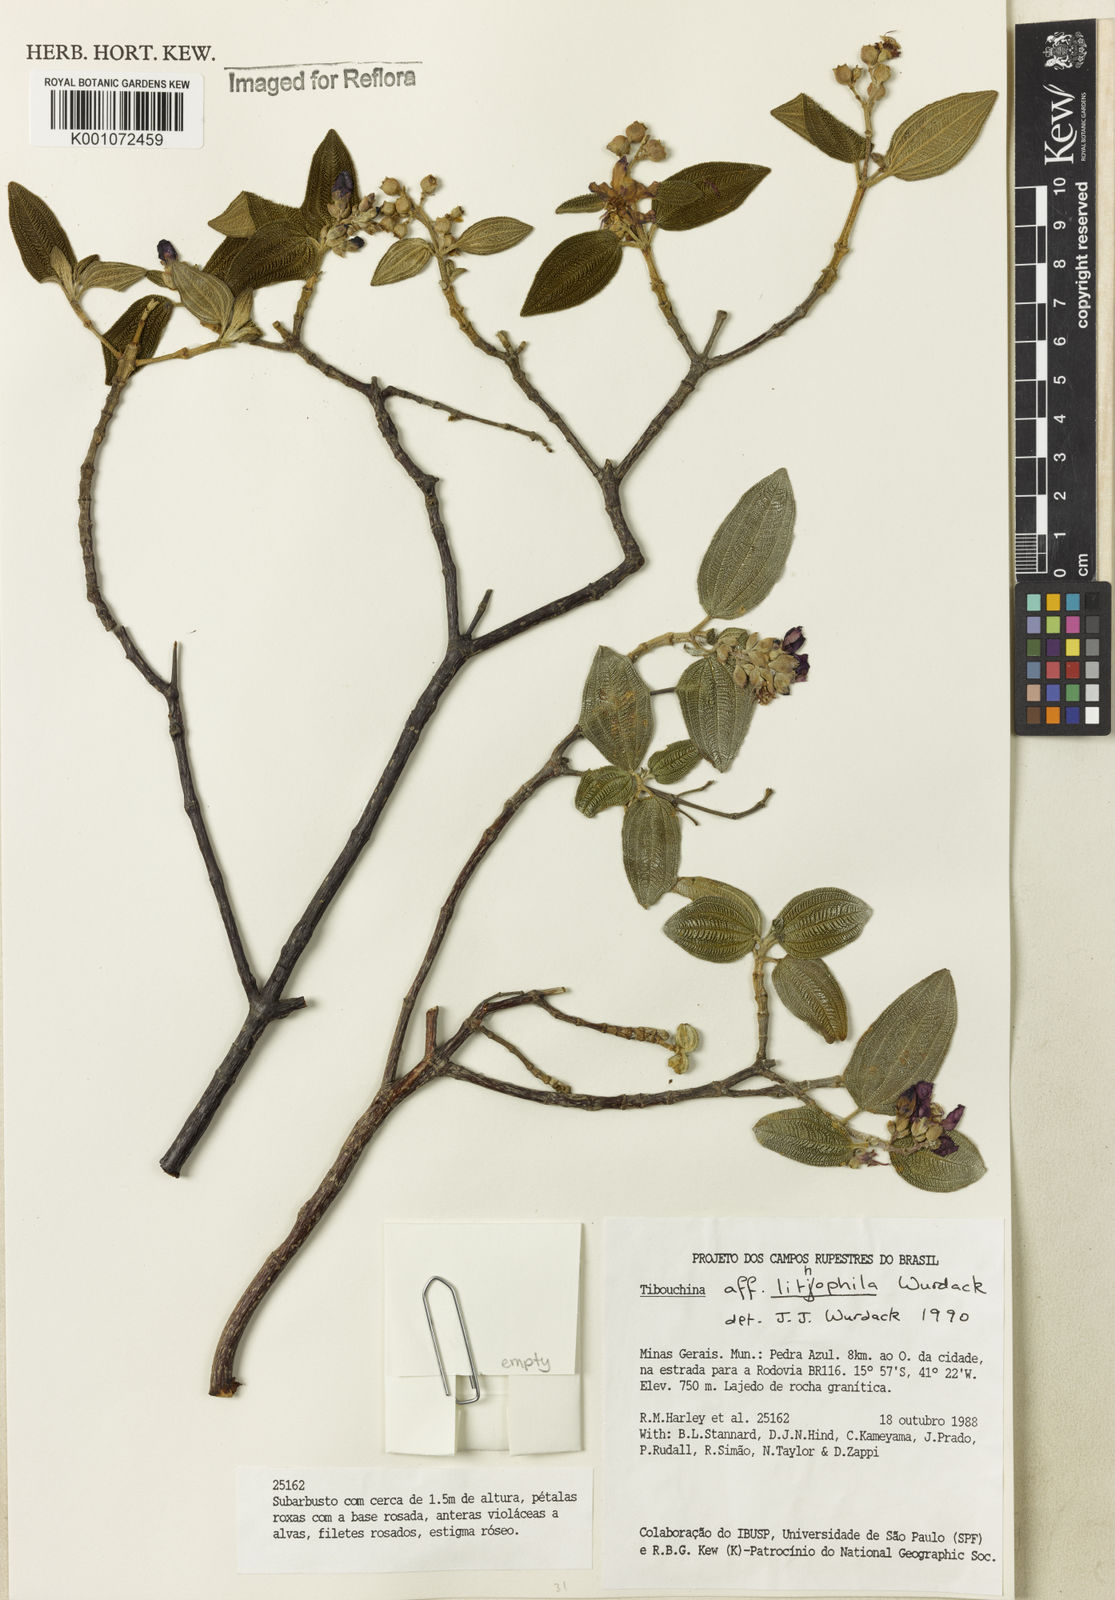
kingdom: Plantae
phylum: Tracheophyta
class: Magnoliopsida
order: Myrtales
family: Melastomataceae
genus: Tibouchina
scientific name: Tibouchina lithophila
